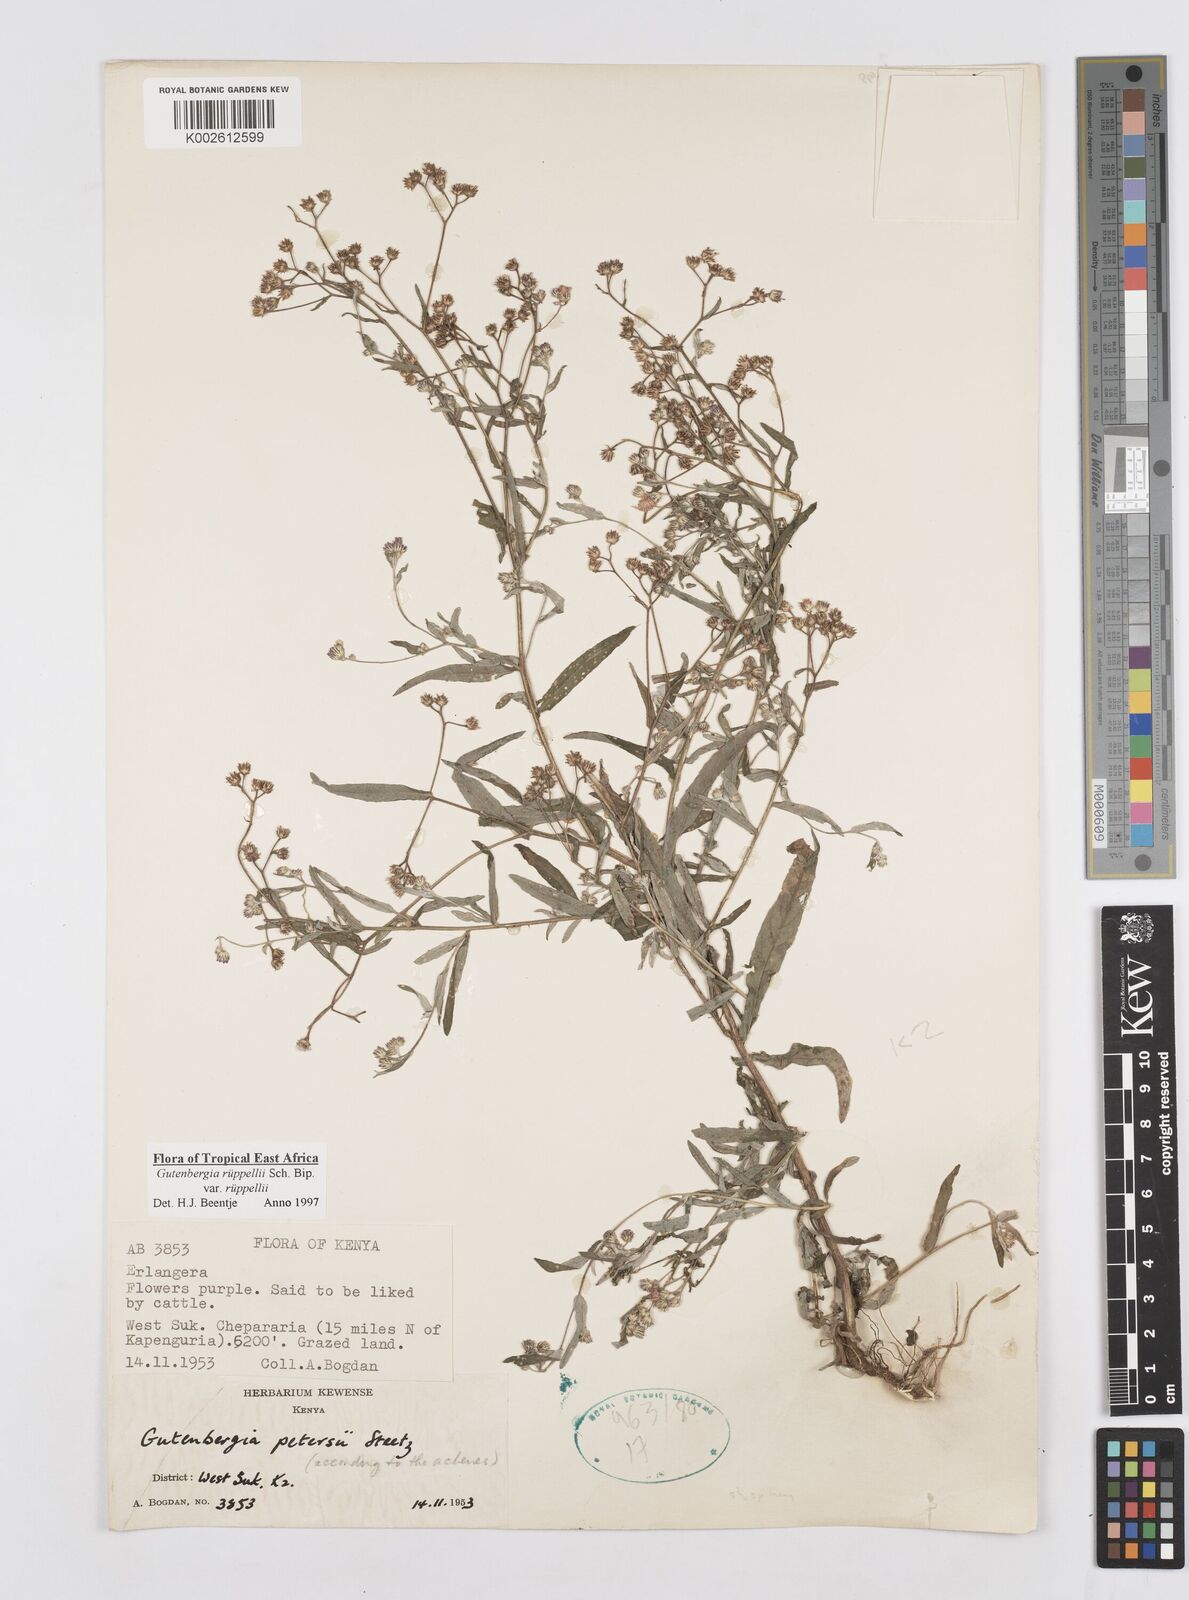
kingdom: Plantae
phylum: Tracheophyta
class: Magnoliopsida
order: Asterales
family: Asteraceae
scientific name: Asteraceae
